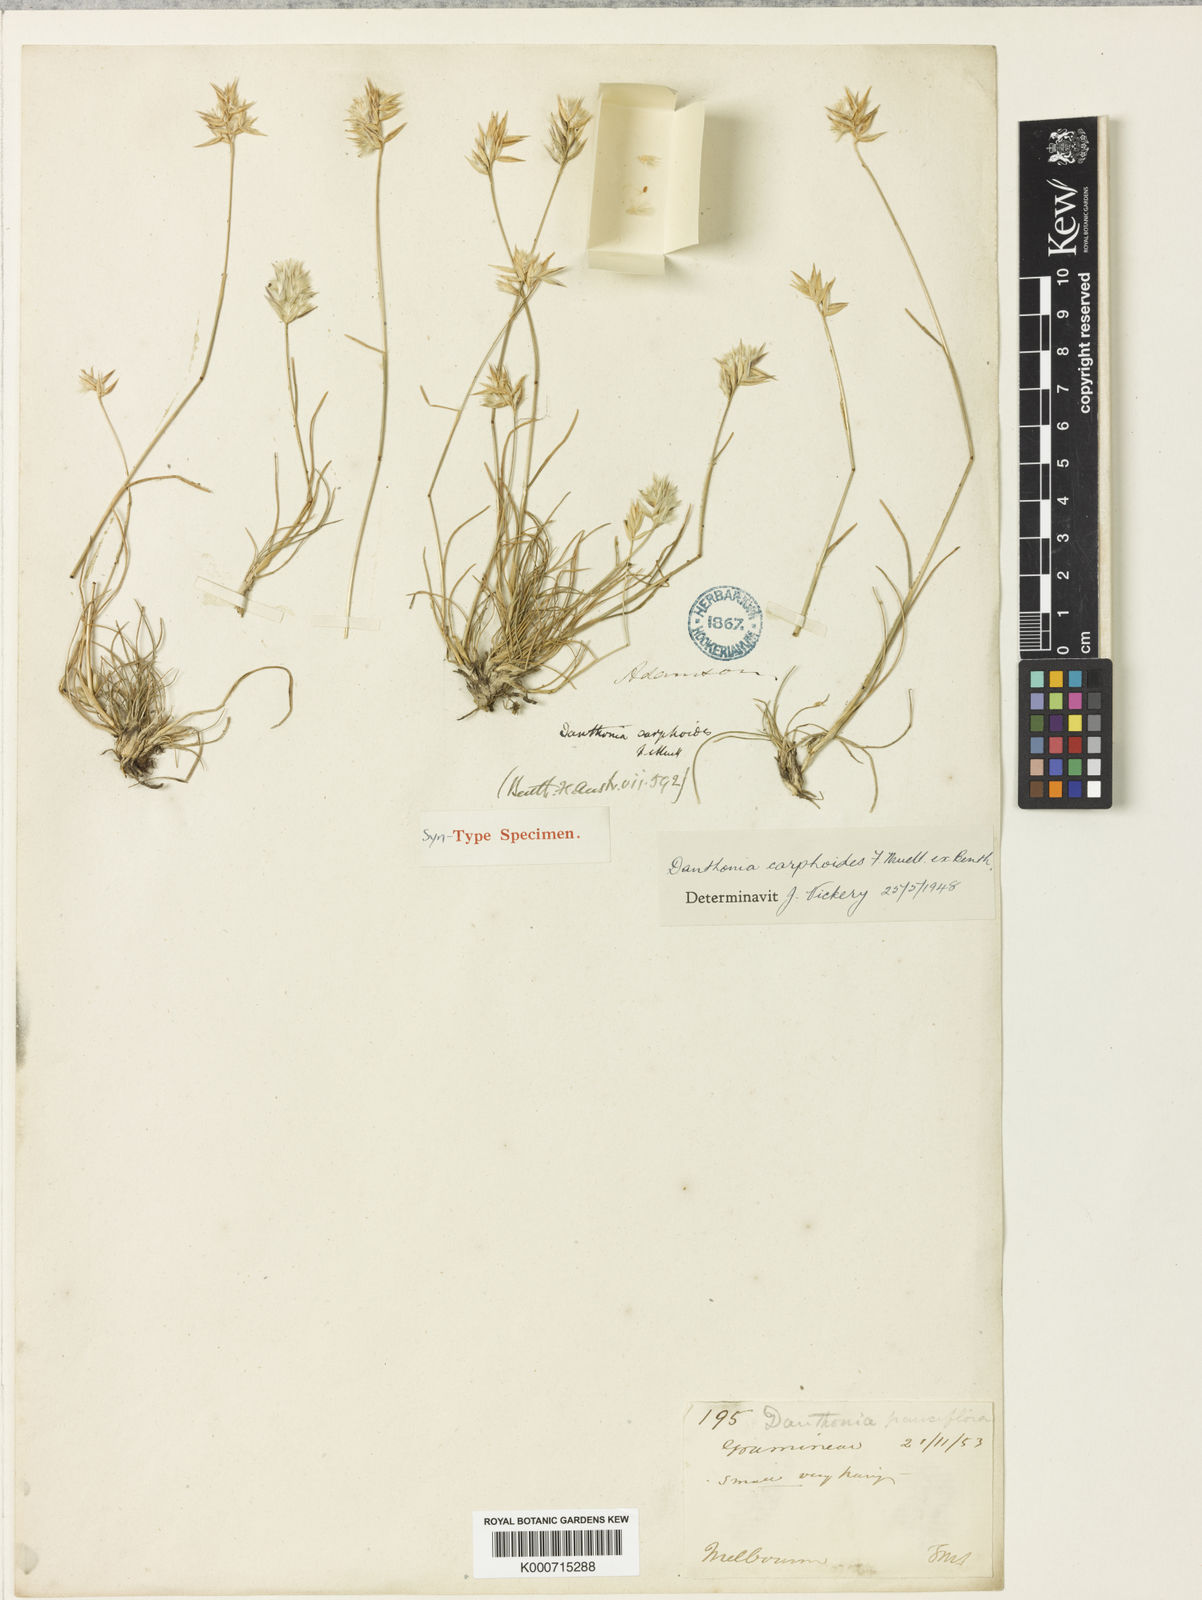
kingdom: Plantae
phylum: Tracheophyta
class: Liliopsida
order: Poales
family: Poaceae
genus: Rytidosperma
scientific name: Rytidosperma carphoides
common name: Short wallaby grass
